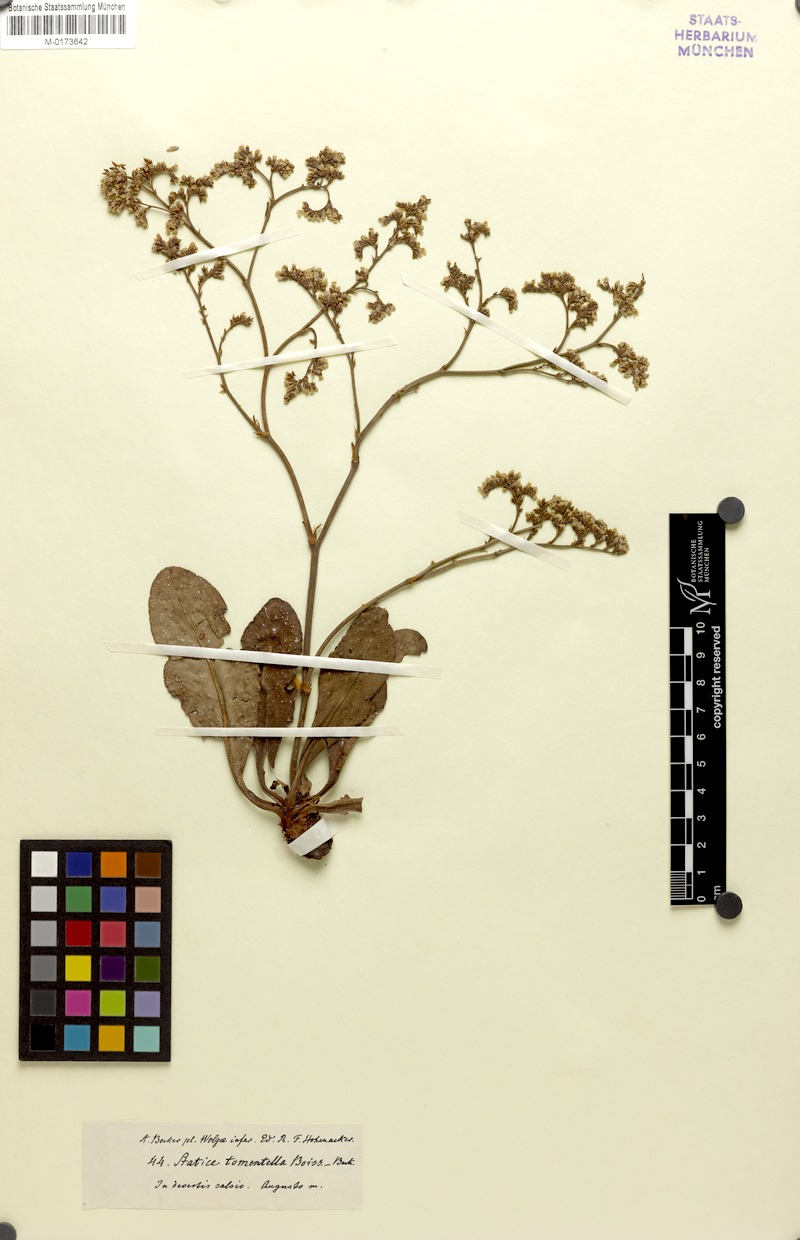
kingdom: Plantae
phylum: Tracheophyta
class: Magnoliopsida
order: Caryophyllales
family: Plumbaginaceae
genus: Limonium
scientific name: Limonium tomentellum
